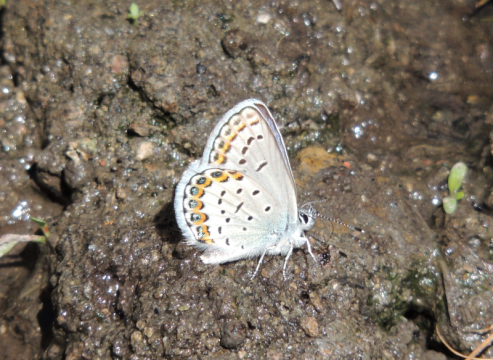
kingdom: Animalia
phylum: Arthropoda
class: Insecta
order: Lepidoptera
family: Lycaenidae
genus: Lycaeides
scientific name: Lycaeides melissa
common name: Melissa Blue
